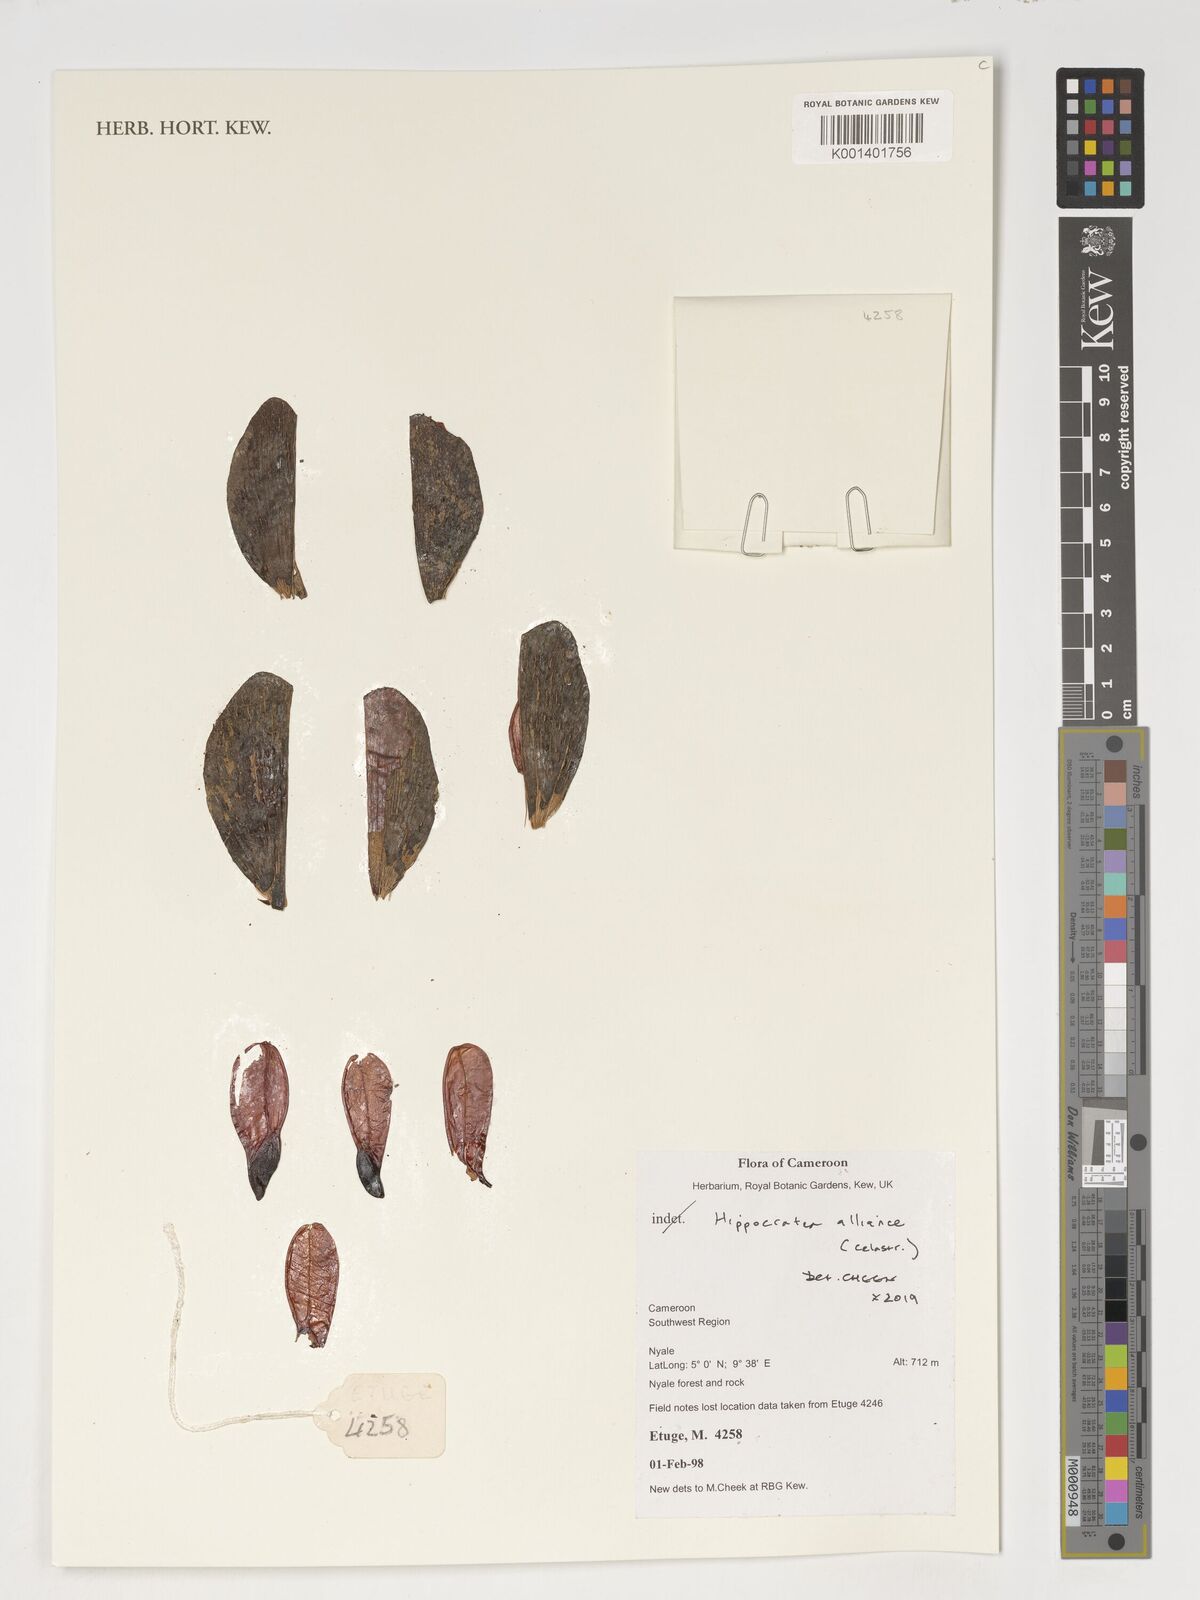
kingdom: Plantae
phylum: Tracheophyta
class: Magnoliopsida
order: Celastrales
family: Celastraceae
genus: Hippocratea
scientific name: Hippocratea
